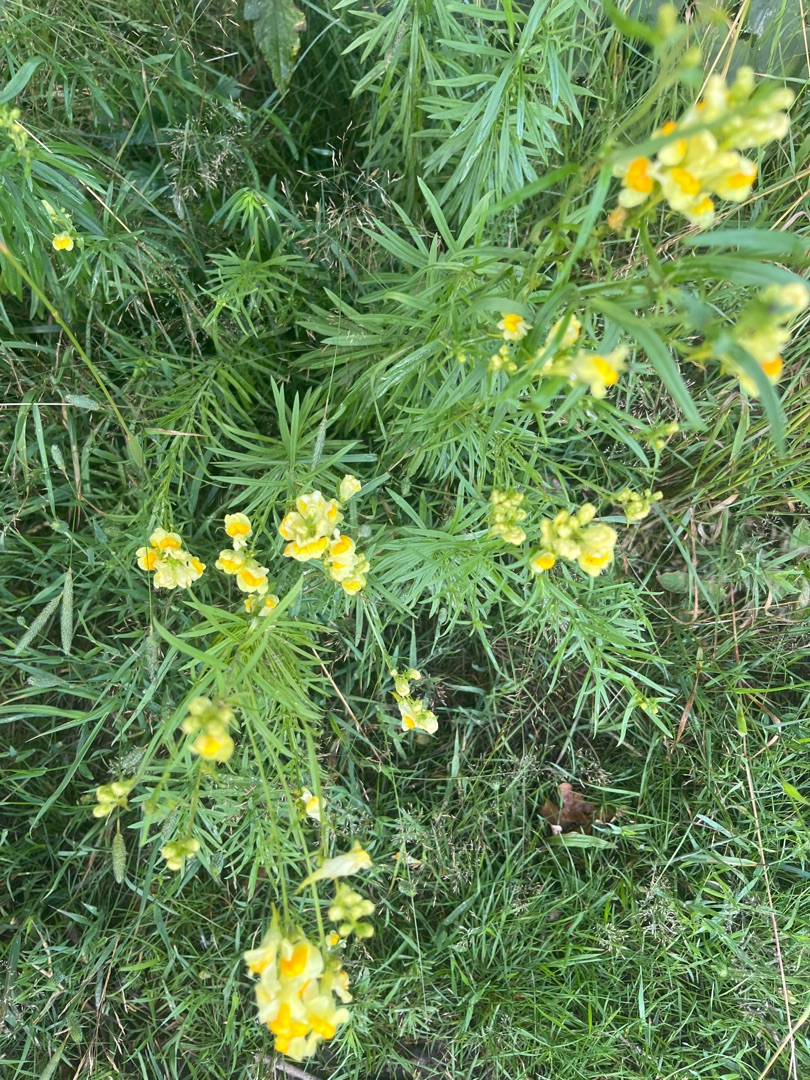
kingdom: Plantae
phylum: Tracheophyta
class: Magnoliopsida
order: Lamiales
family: Plantaginaceae
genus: Linaria
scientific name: Linaria vulgaris
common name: Almindelig torskemund
